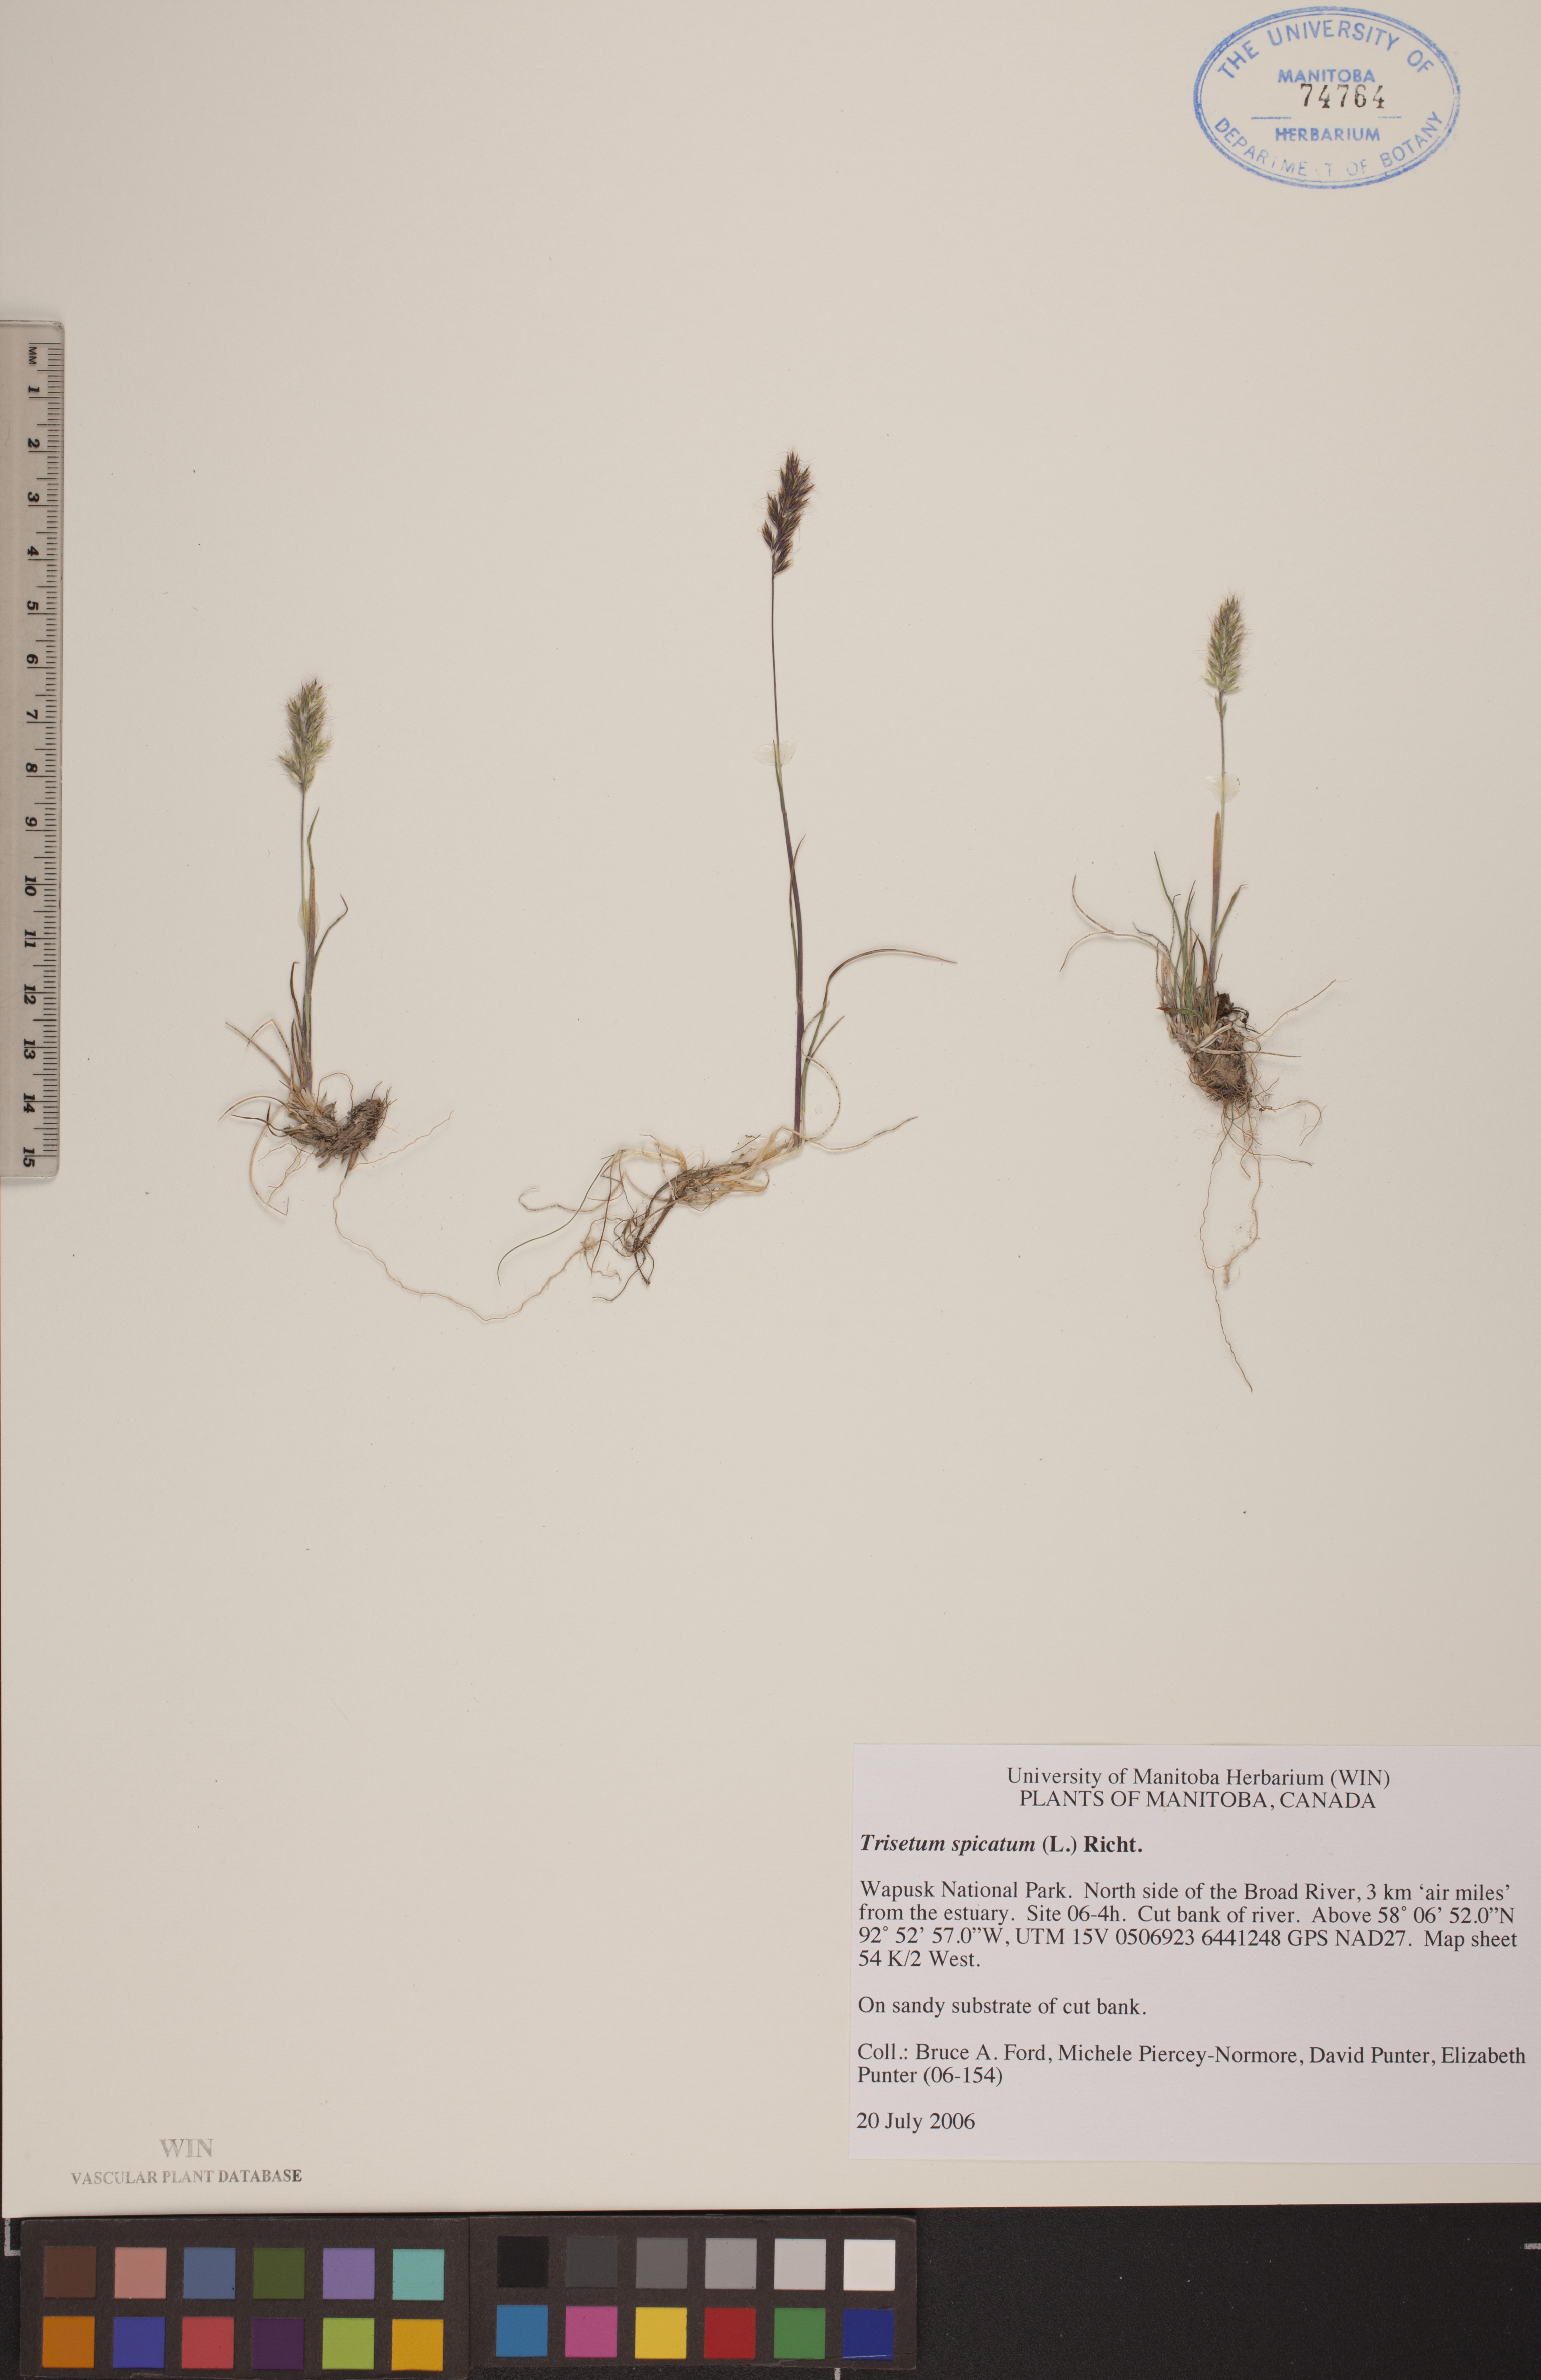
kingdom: Plantae
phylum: Tracheophyta
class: Liliopsida
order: Poales
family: Poaceae
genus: Koeleria
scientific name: Koeleria spicata
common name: Mountain trisetum
